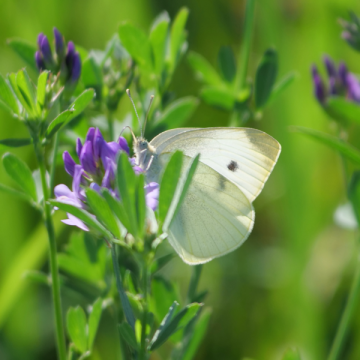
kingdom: Animalia
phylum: Arthropoda
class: Insecta
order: Lepidoptera
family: Pieridae
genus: Pieris
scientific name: Pieris rapae
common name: Cabbage White
